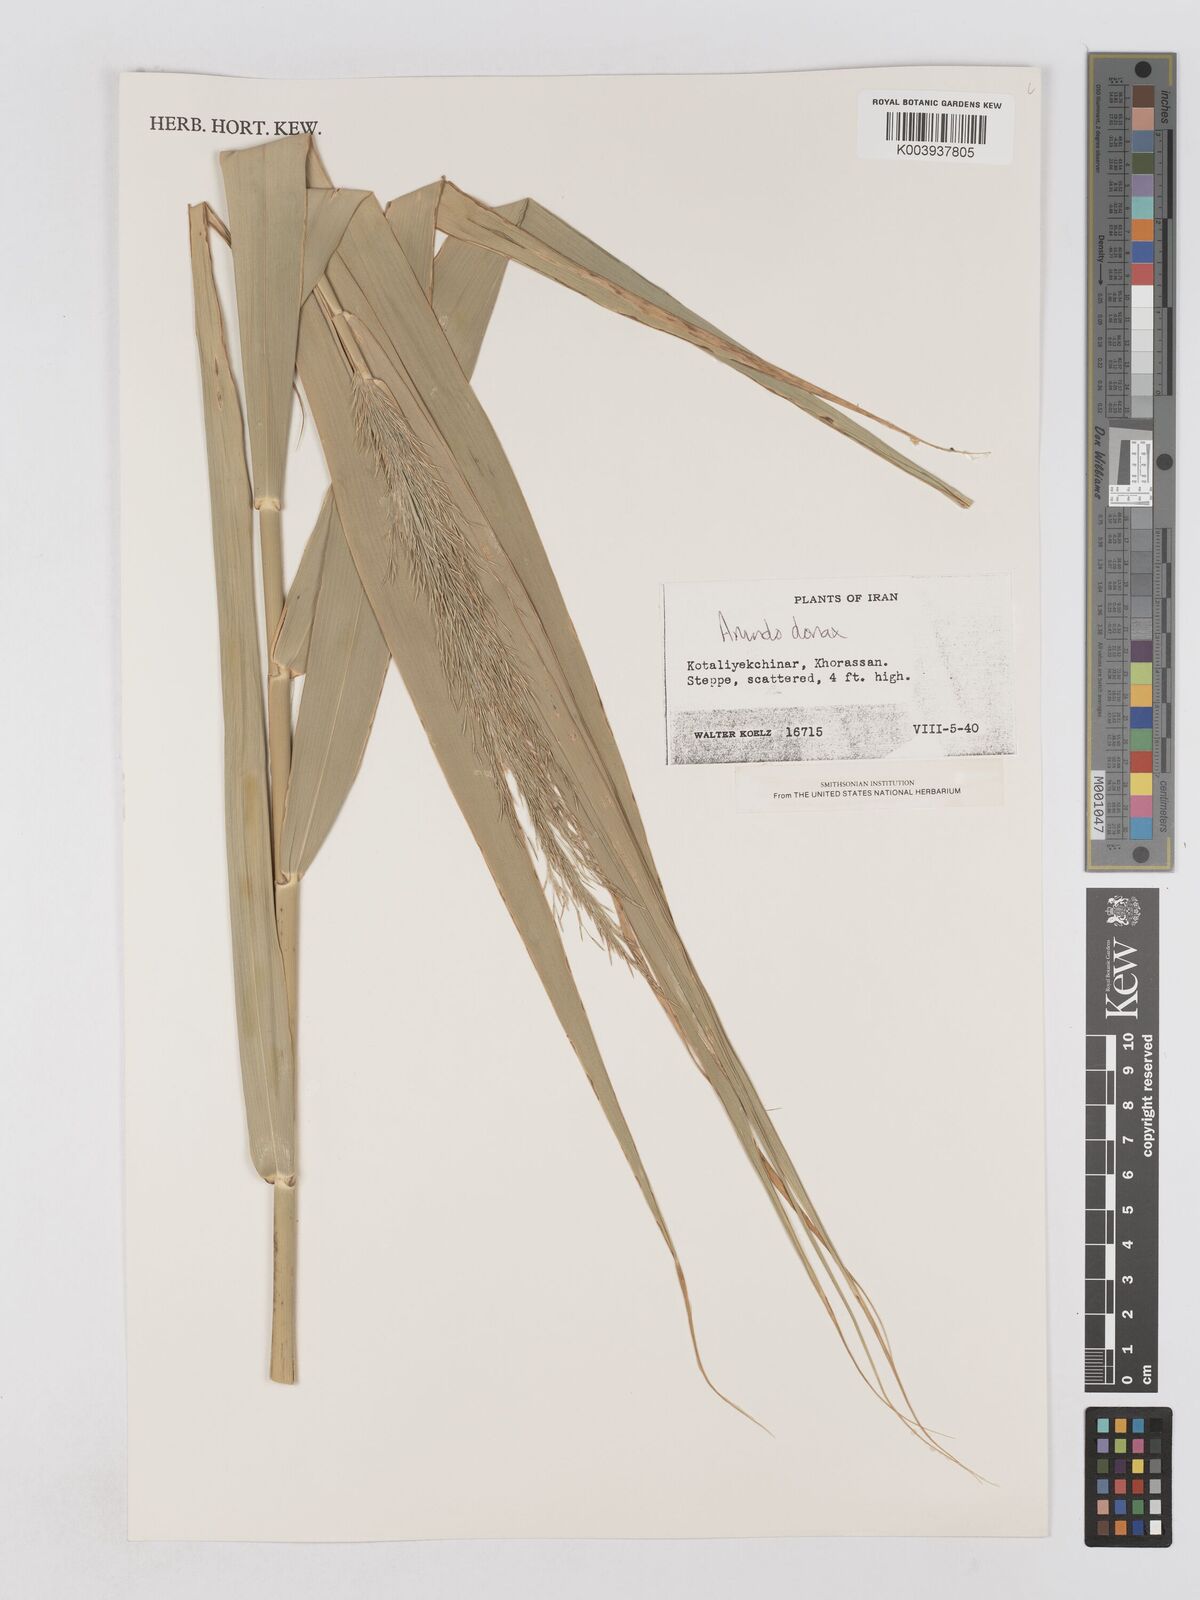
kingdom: Plantae
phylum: Tracheophyta
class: Liliopsida
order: Poales
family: Poaceae
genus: Arundo
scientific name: Arundo donax
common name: Giant reed
